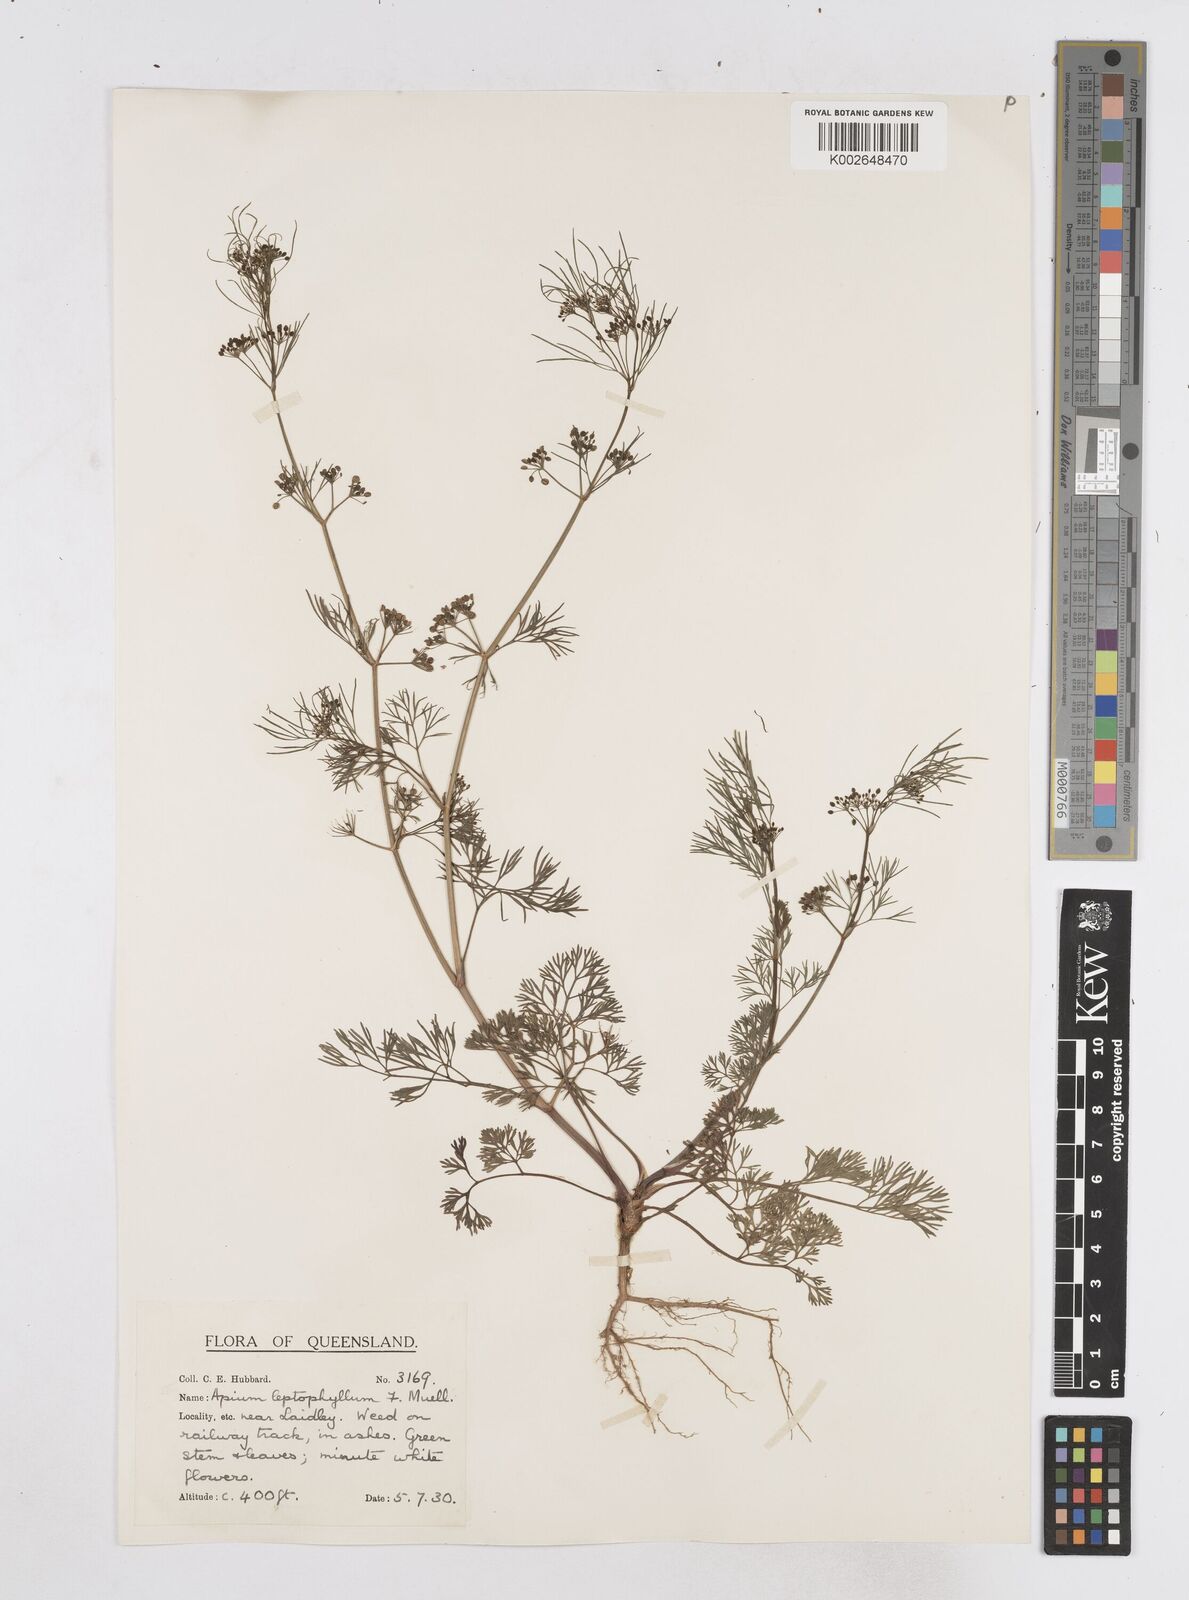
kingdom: Plantae
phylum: Tracheophyta
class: Magnoliopsida
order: Apiales
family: Apiaceae
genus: Cyclospermum
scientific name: Cyclospermum leptophyllum
